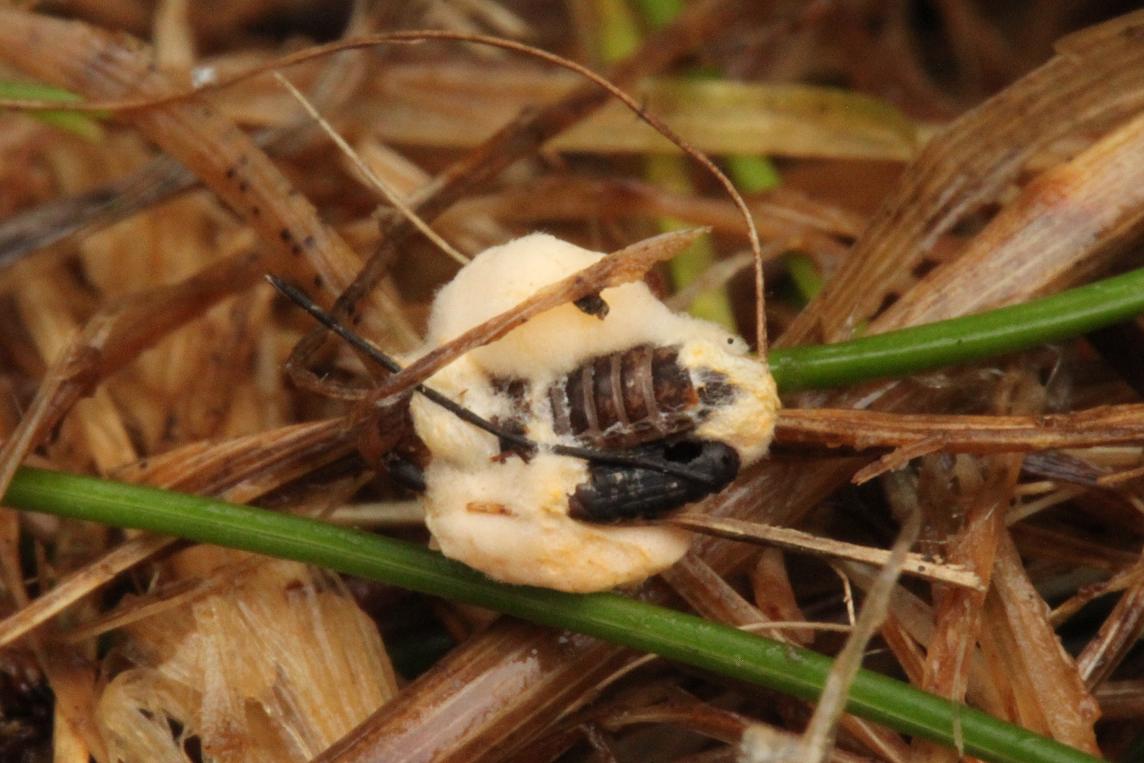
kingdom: Fungi
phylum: Ascomycota
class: Sordariomycetes
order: Hypocreales
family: Cordycipitaceae
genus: Beauveria
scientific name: Beauveria bassiana
